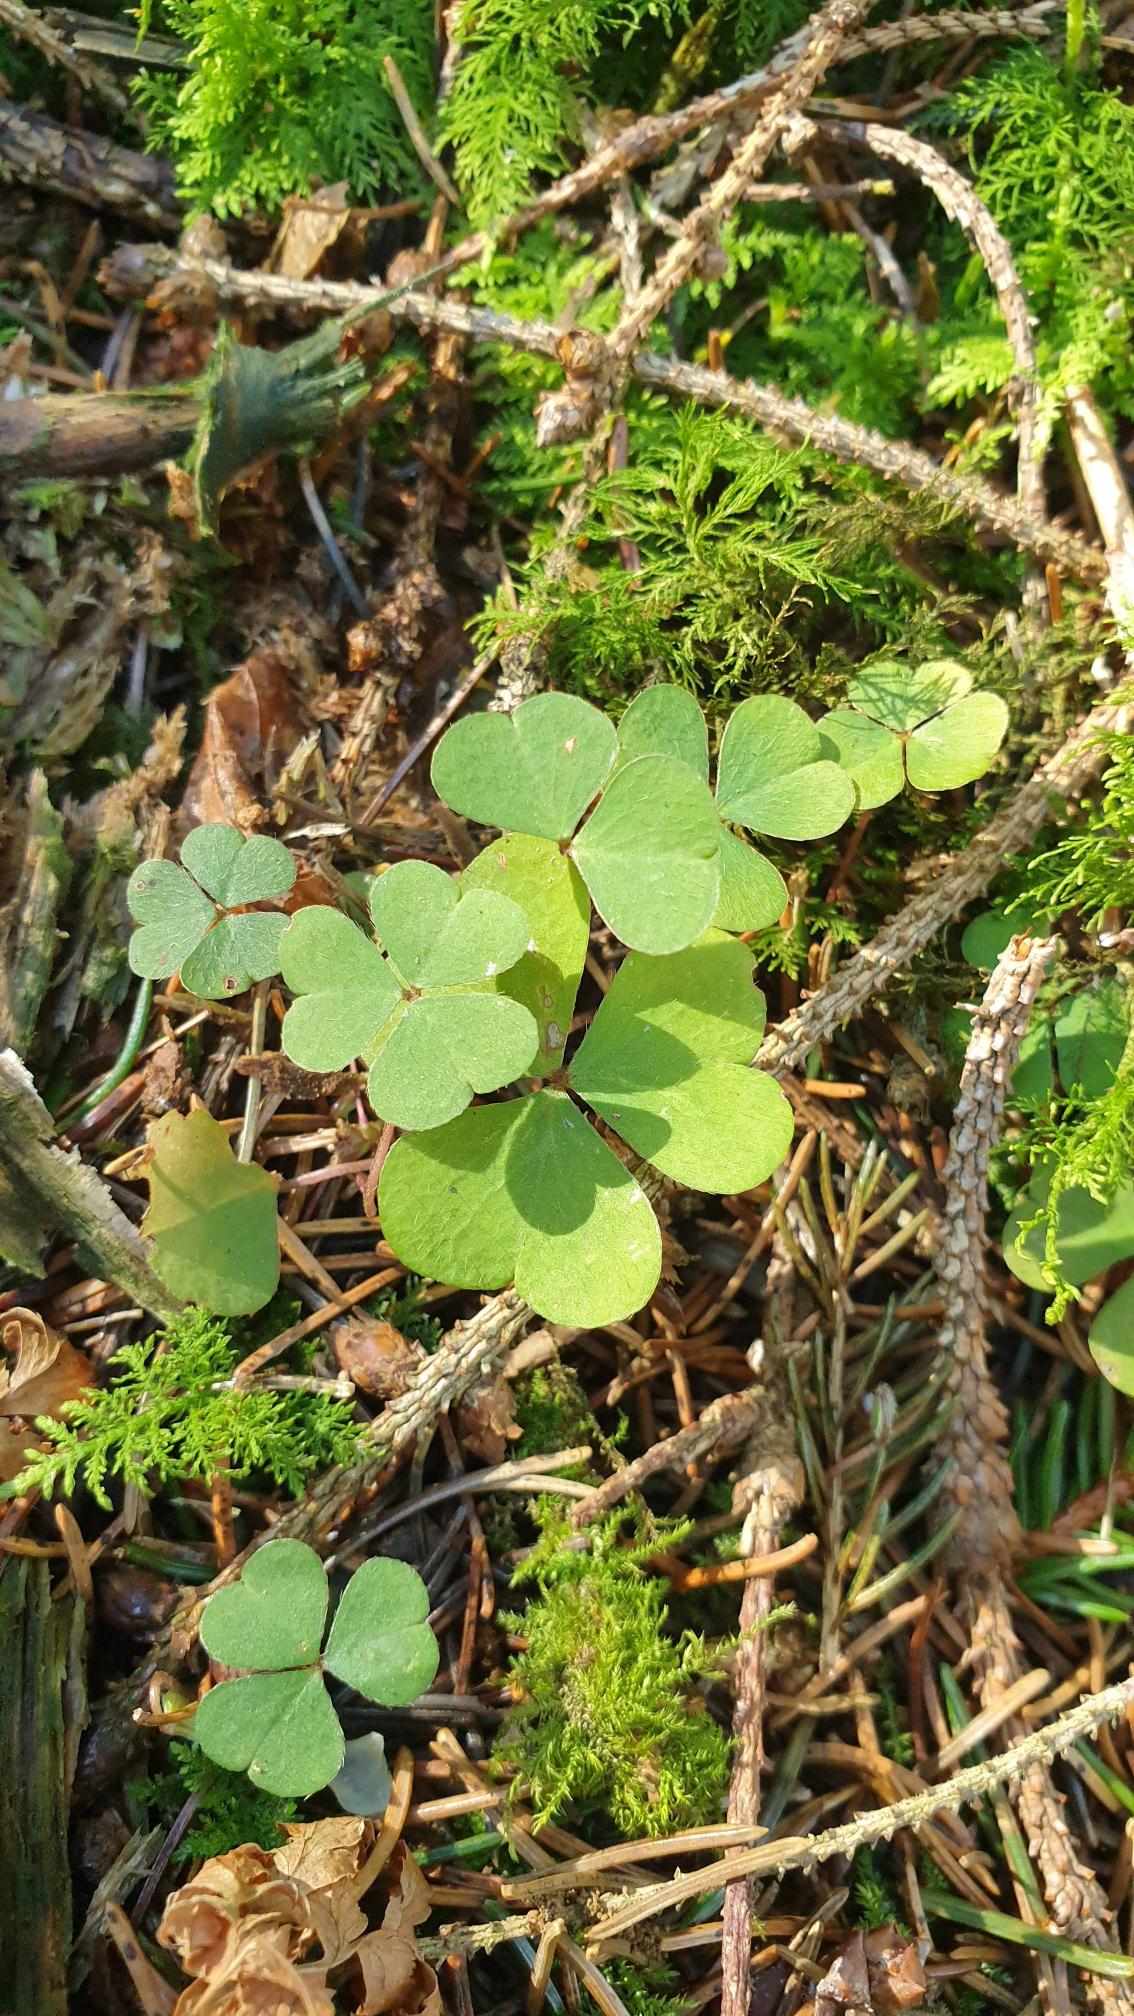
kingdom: Plantae
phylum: Tracheophyta
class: Magnoliopsida
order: Oxalidales
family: Oxalidaceae
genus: Oxalis
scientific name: Oxalis acetosella
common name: Skovsyre
